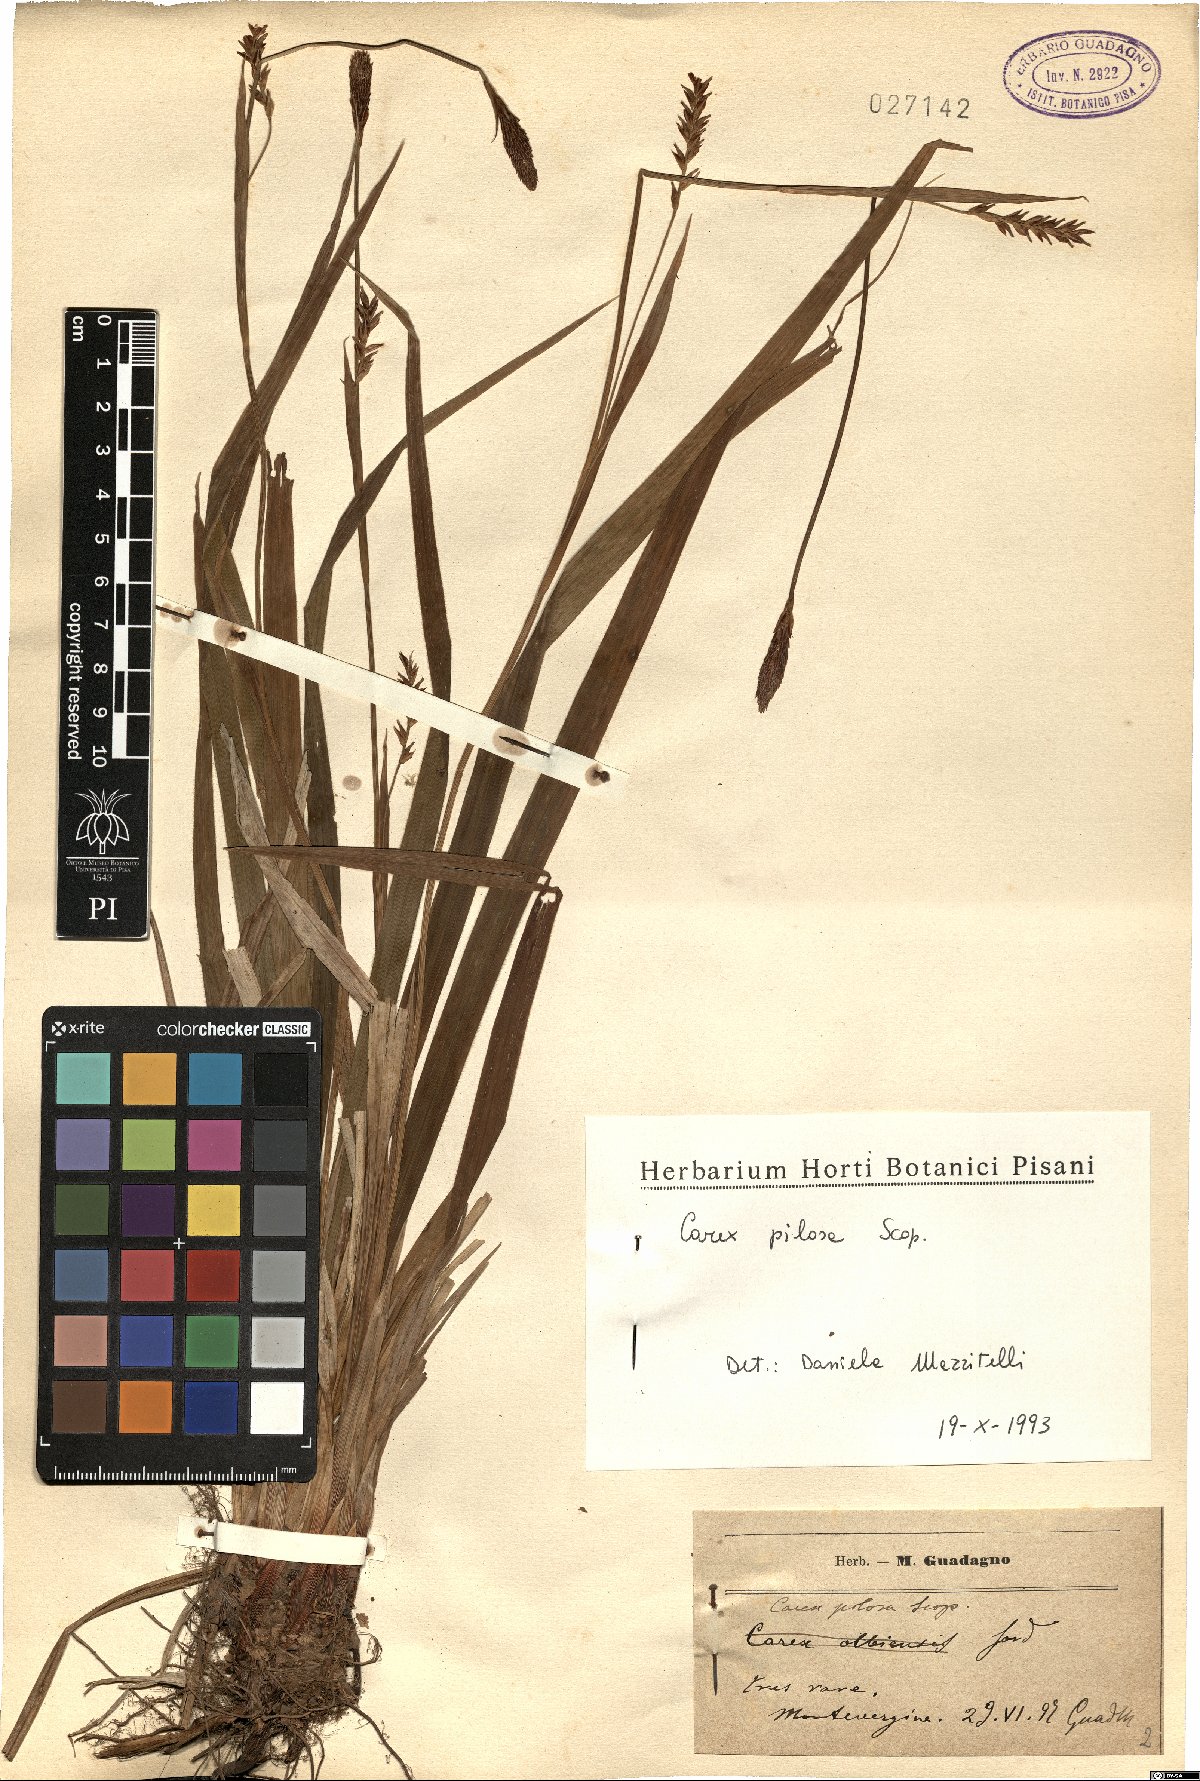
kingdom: Plantae
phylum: Tracheophyta
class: Liliopsida
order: Poales
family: Cyperaceae
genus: Carex
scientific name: Carex pilosa
